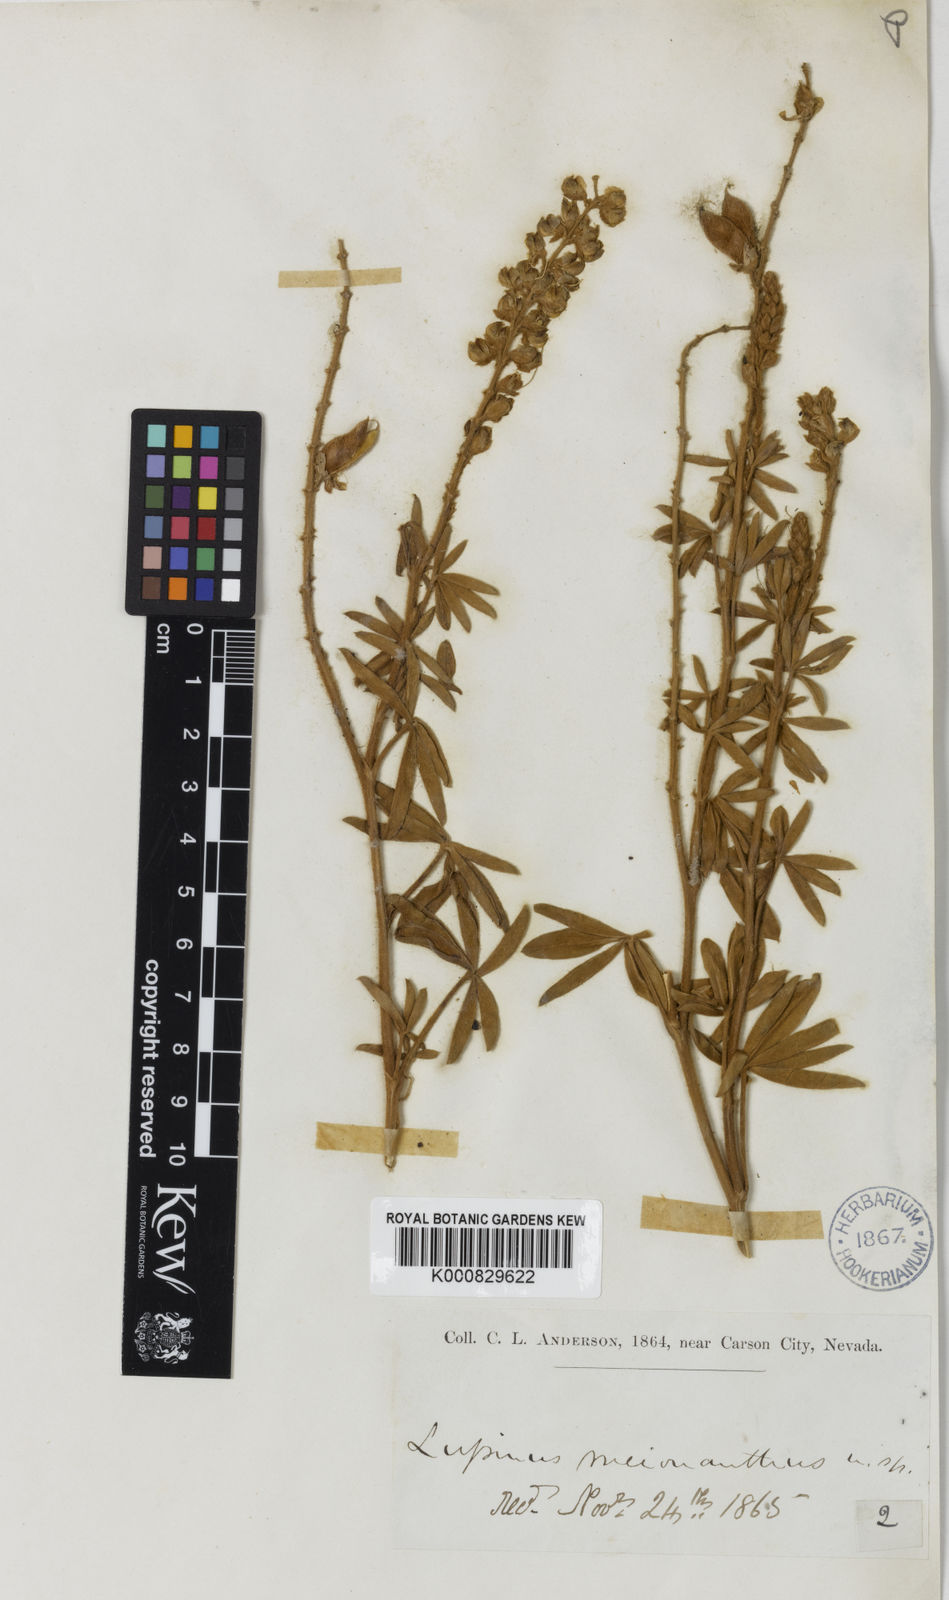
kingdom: Plantae
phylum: Tracheophyta
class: Magnoliopsida
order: Fabales
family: Fabaceae
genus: Lupinus
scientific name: Lupinus meionanthus
